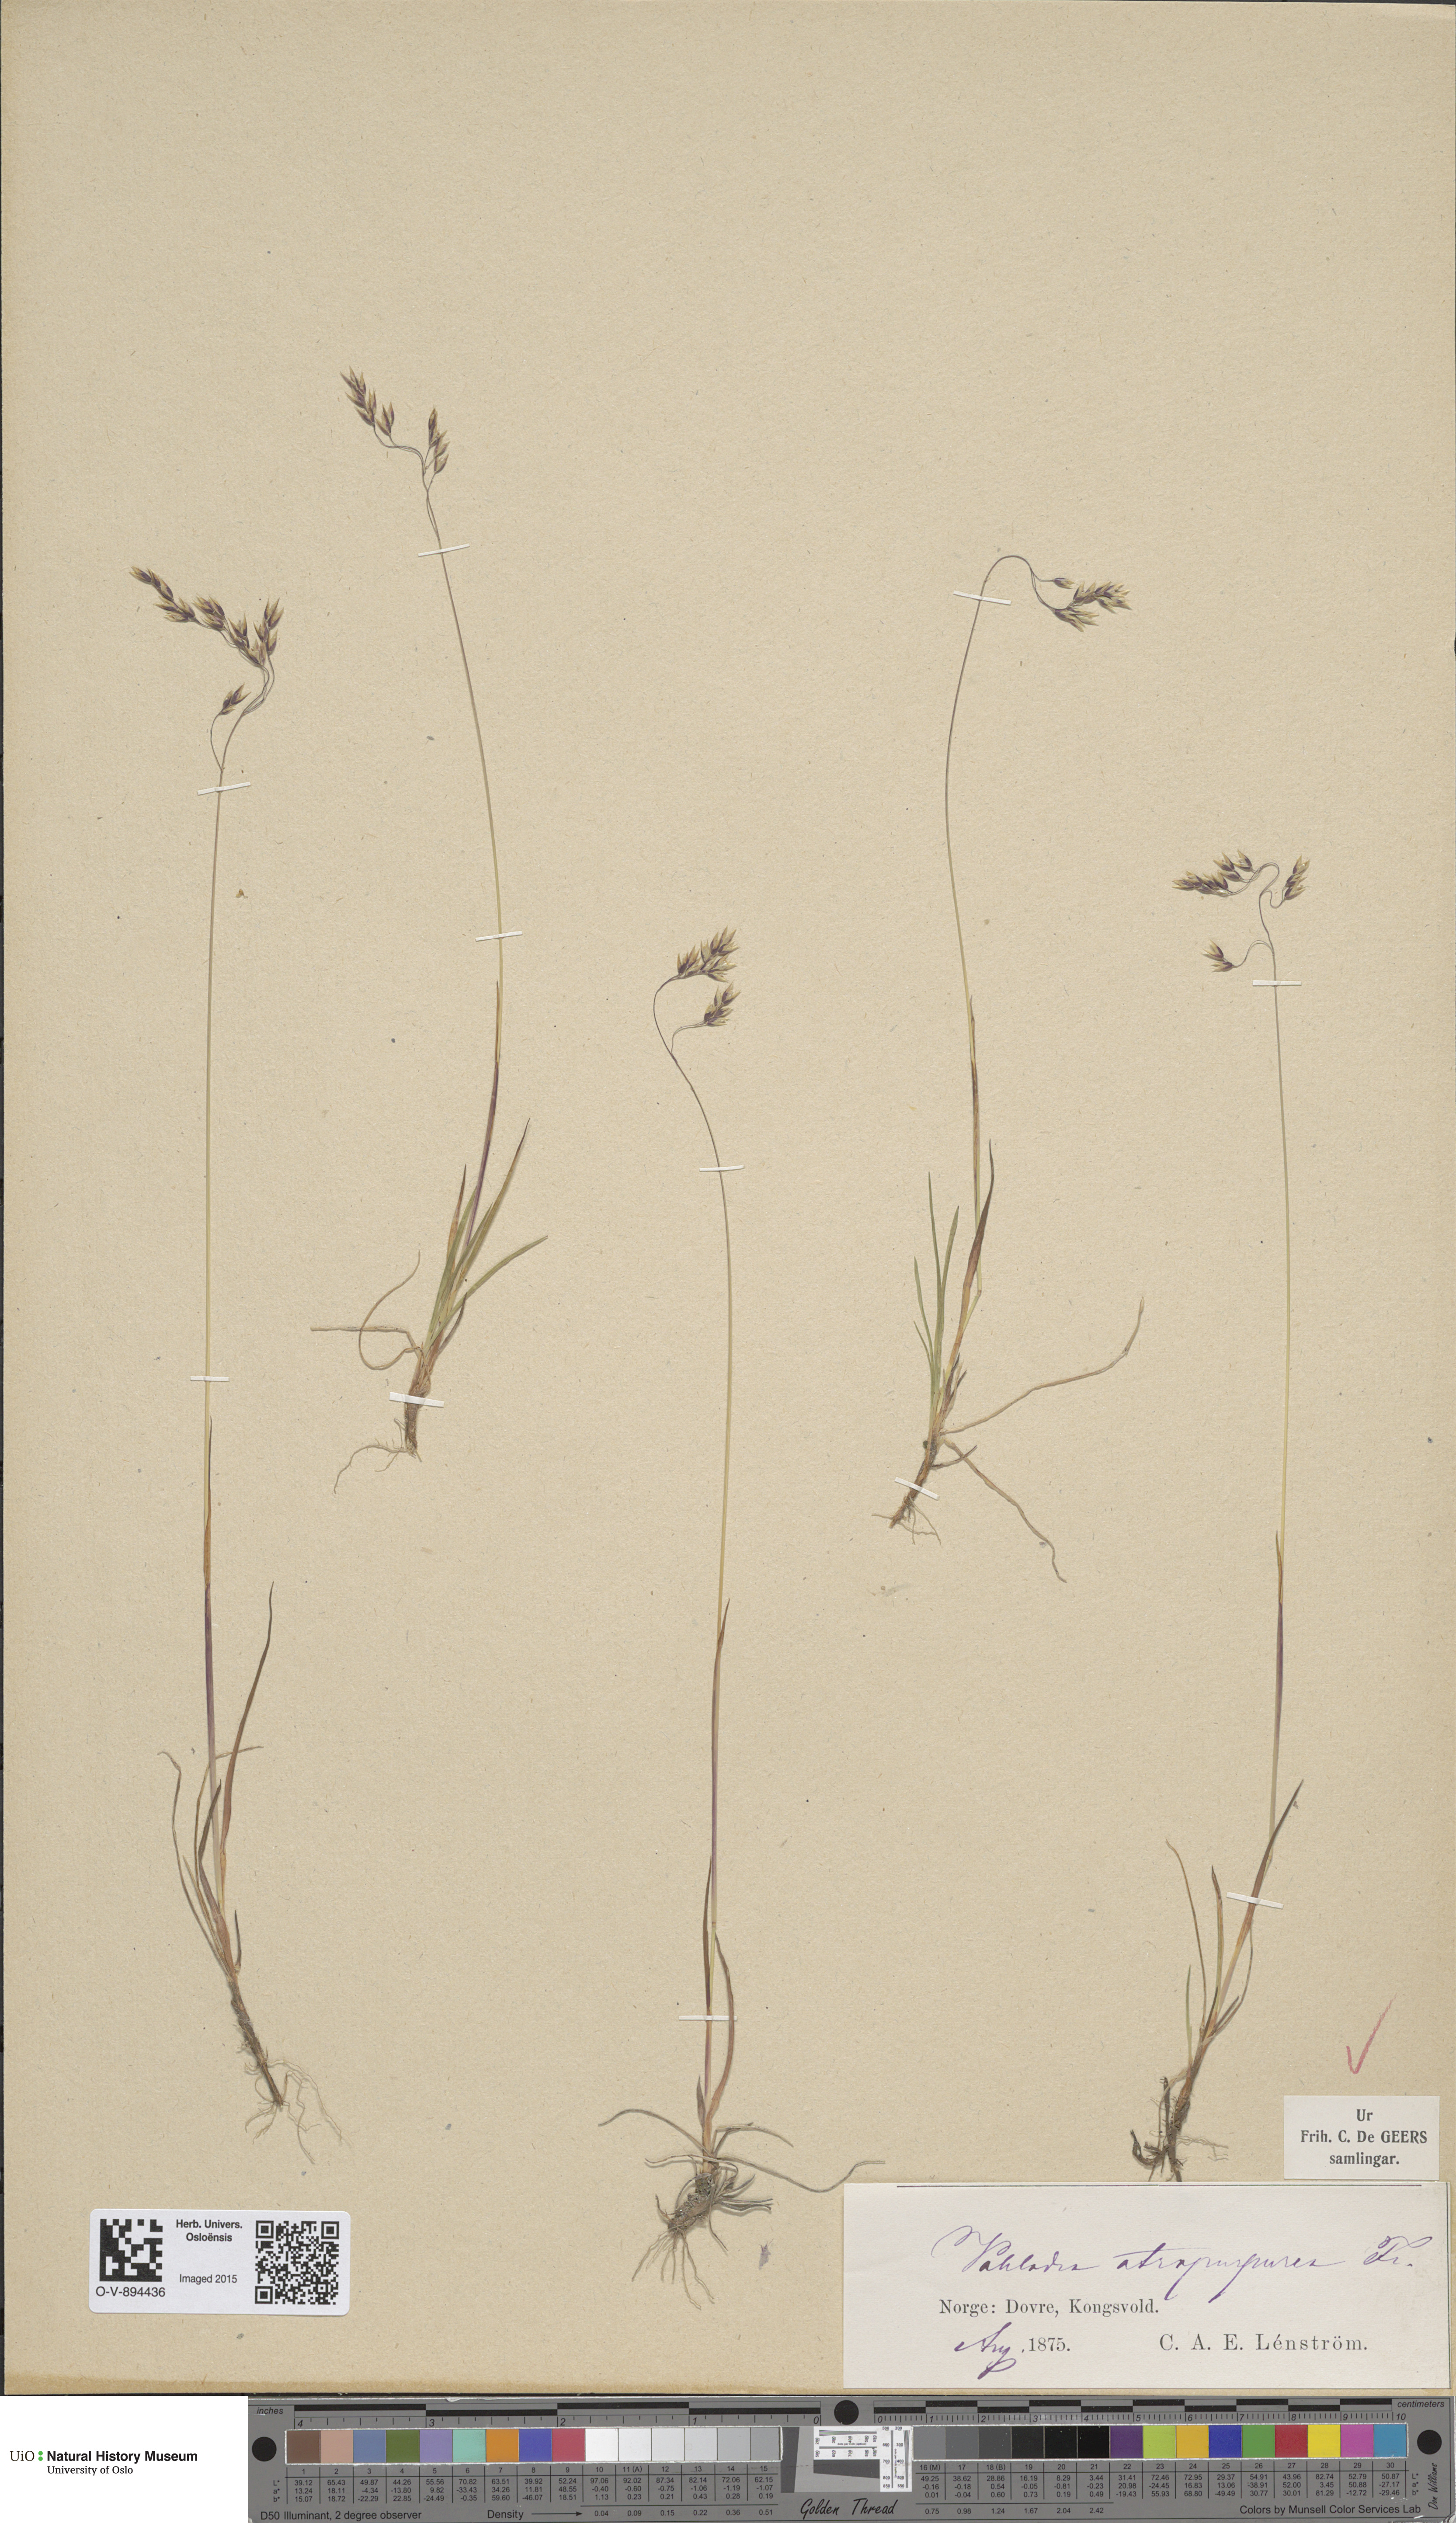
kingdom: Plantae
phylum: Tracheophyta
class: Liliopsida
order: Poales
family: Poaceae
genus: Vahlodea
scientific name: Vahlodea atropurpurea
